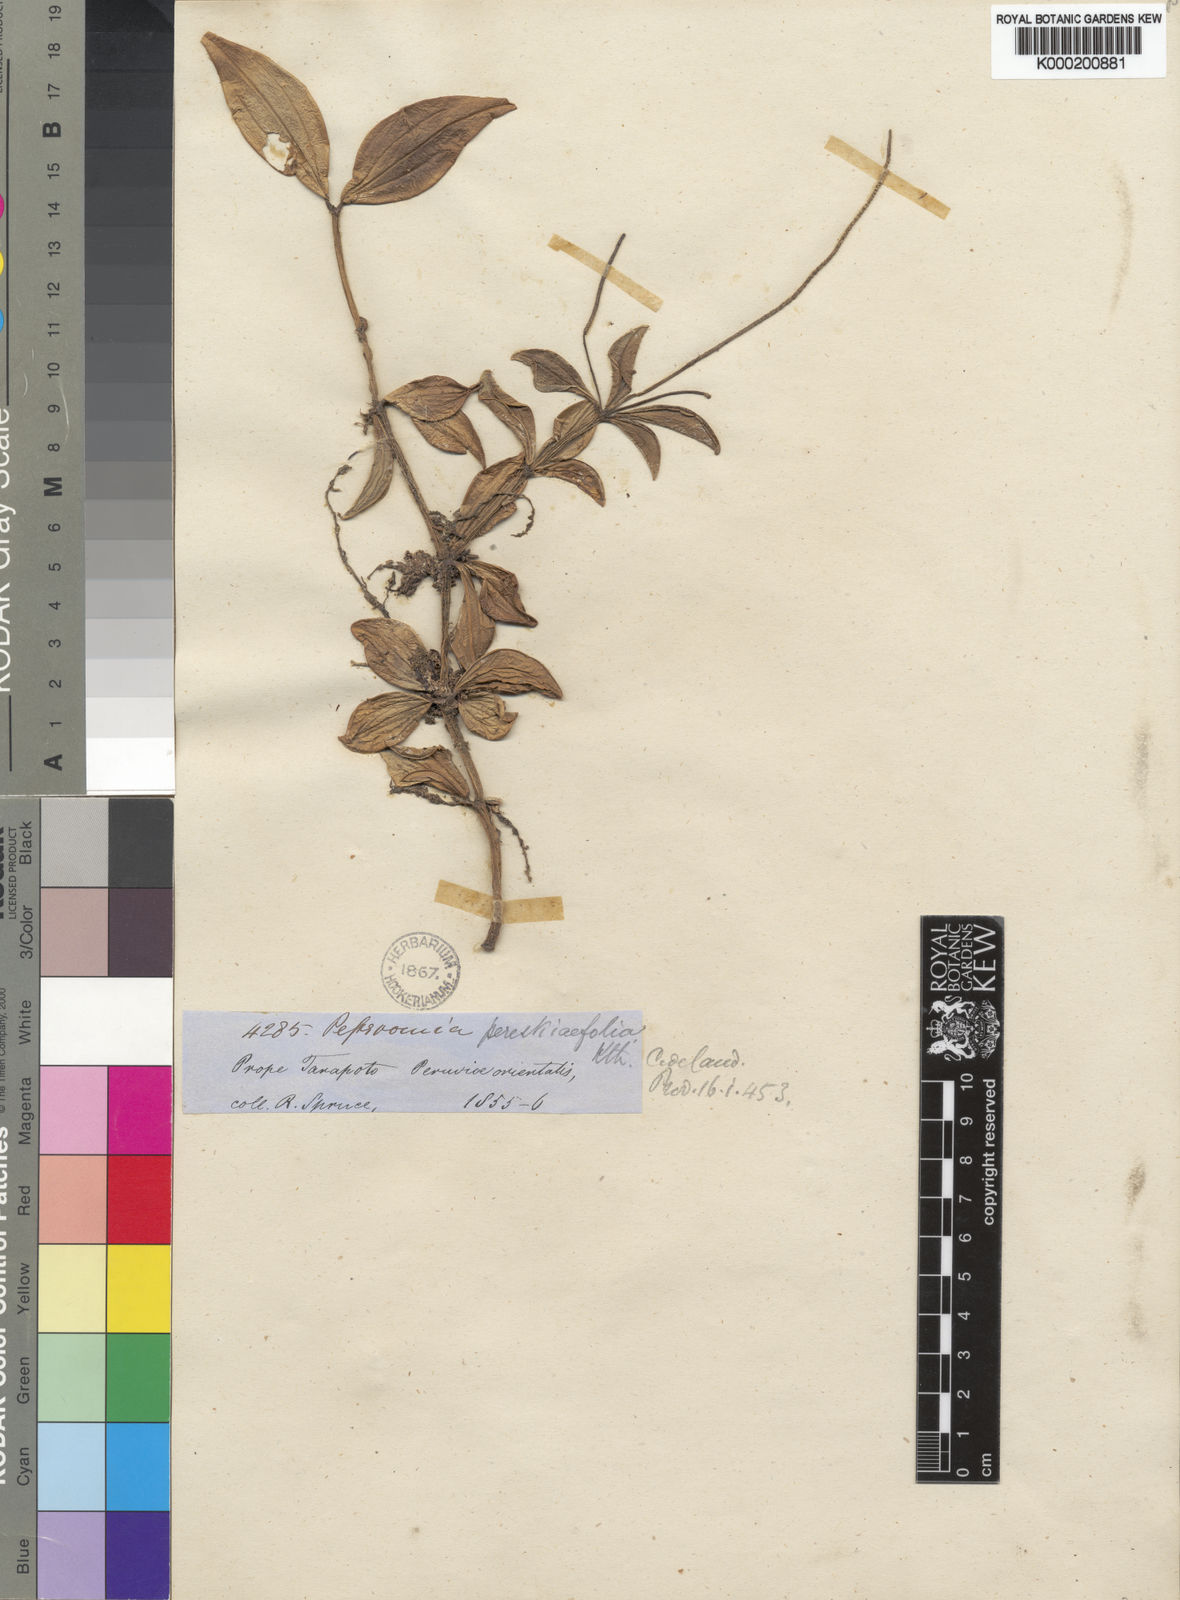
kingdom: Plantae
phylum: Tracheophyta
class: Magnoliopsida
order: Piperales
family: Piperaceae
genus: Peperomia
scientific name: Peperomia
